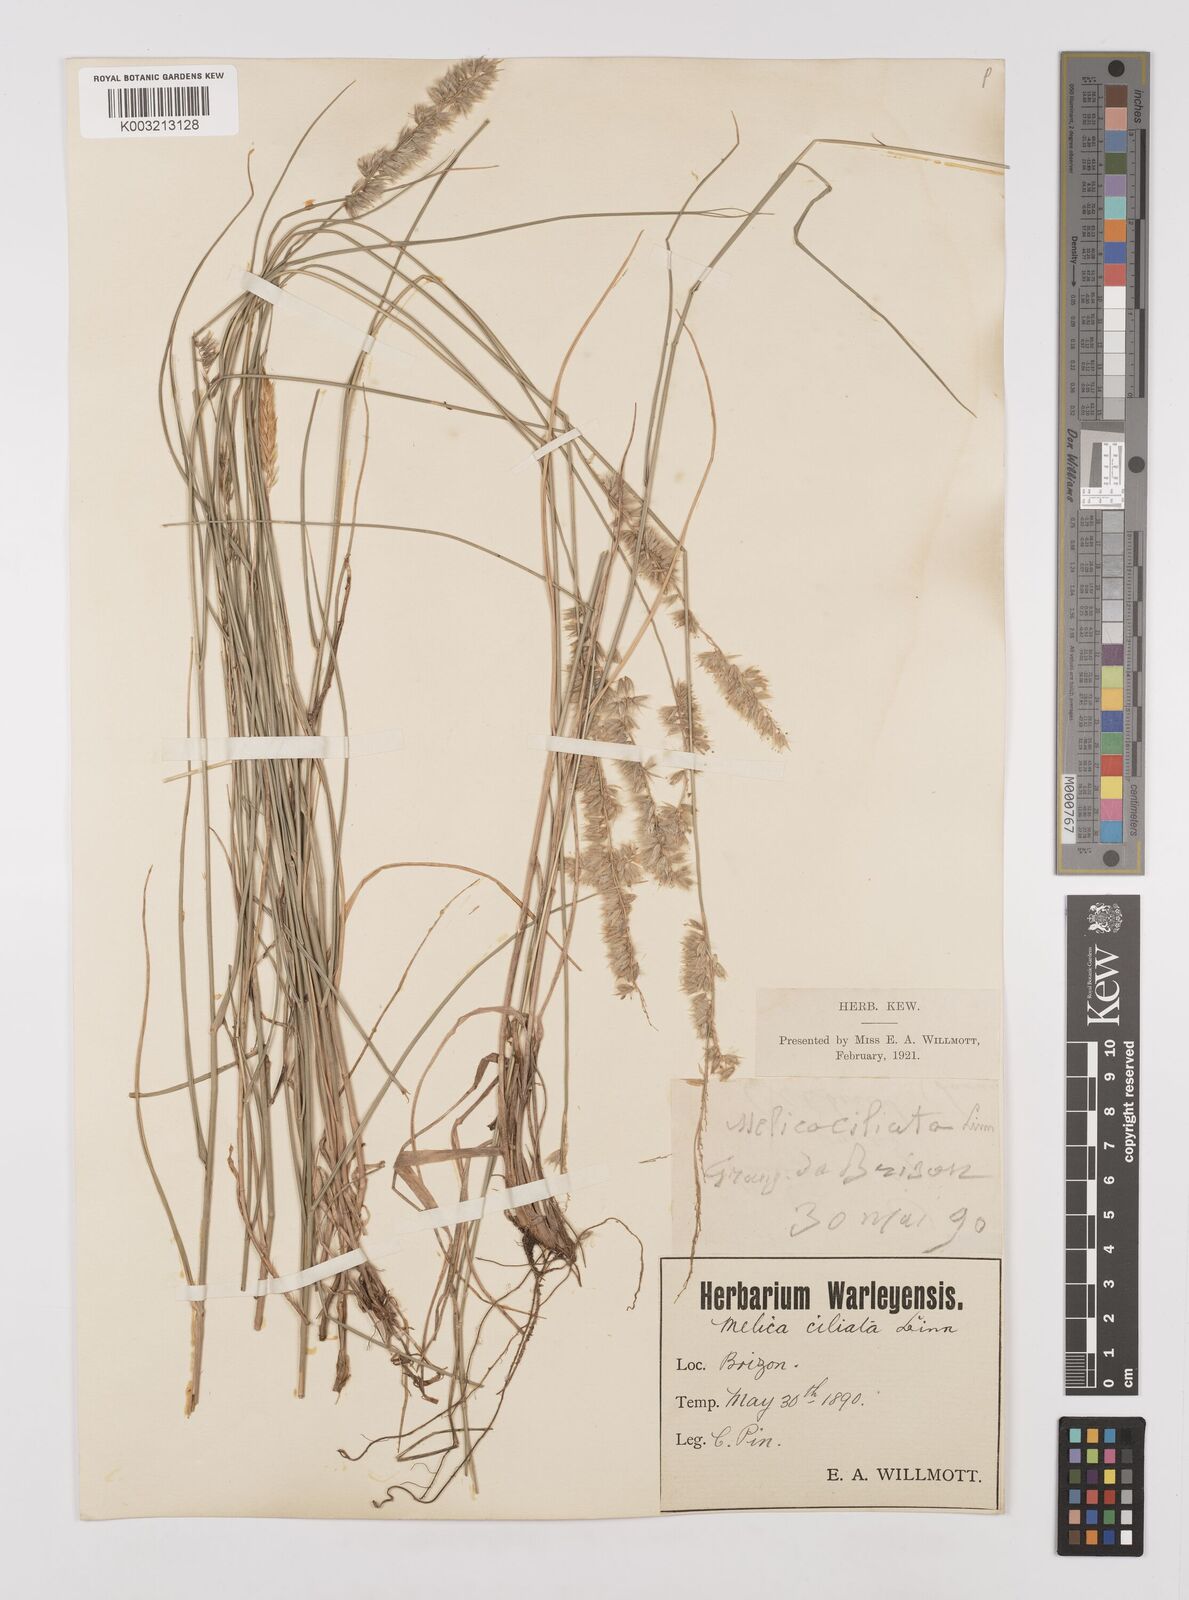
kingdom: Plantae
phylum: Tracheophyta
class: Liliopsida
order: Poales
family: Poaceae
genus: Melica
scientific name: Melica ciliata
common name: Hairy melicgrass
